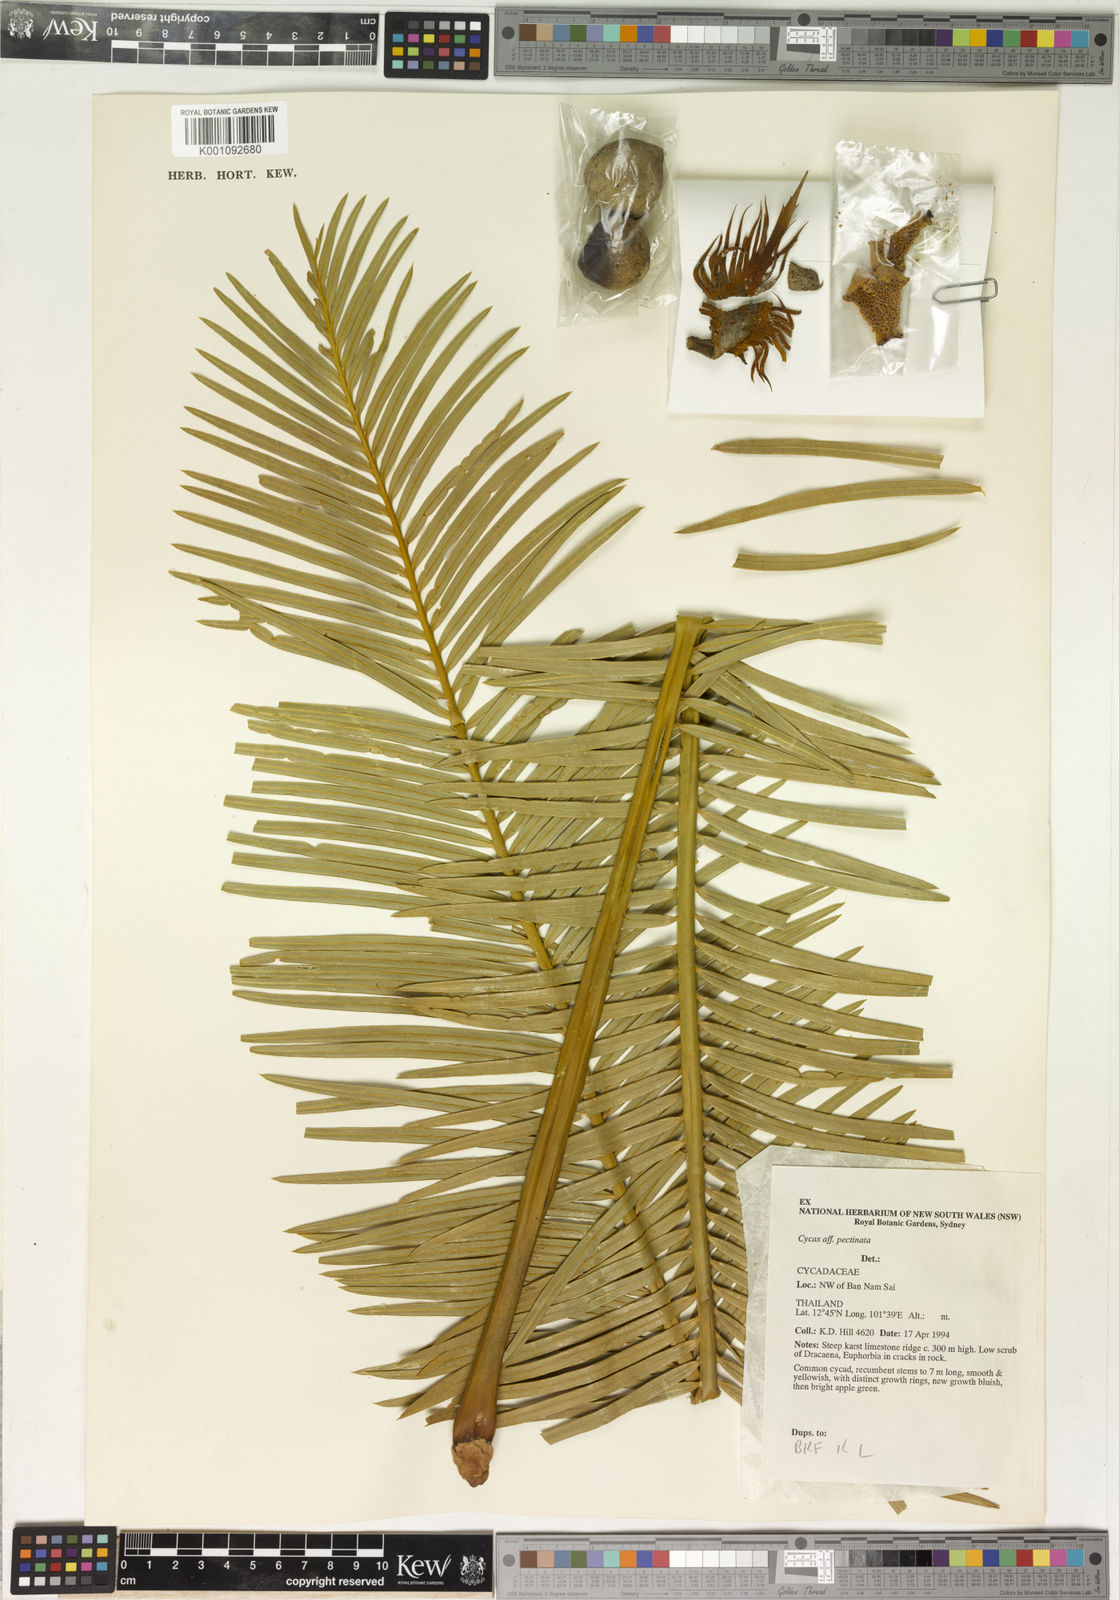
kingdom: Plantae
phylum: Tracheophyta
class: Cycadopsida
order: Cycadales
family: Cycadaceae
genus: Cycas
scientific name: Cycas
